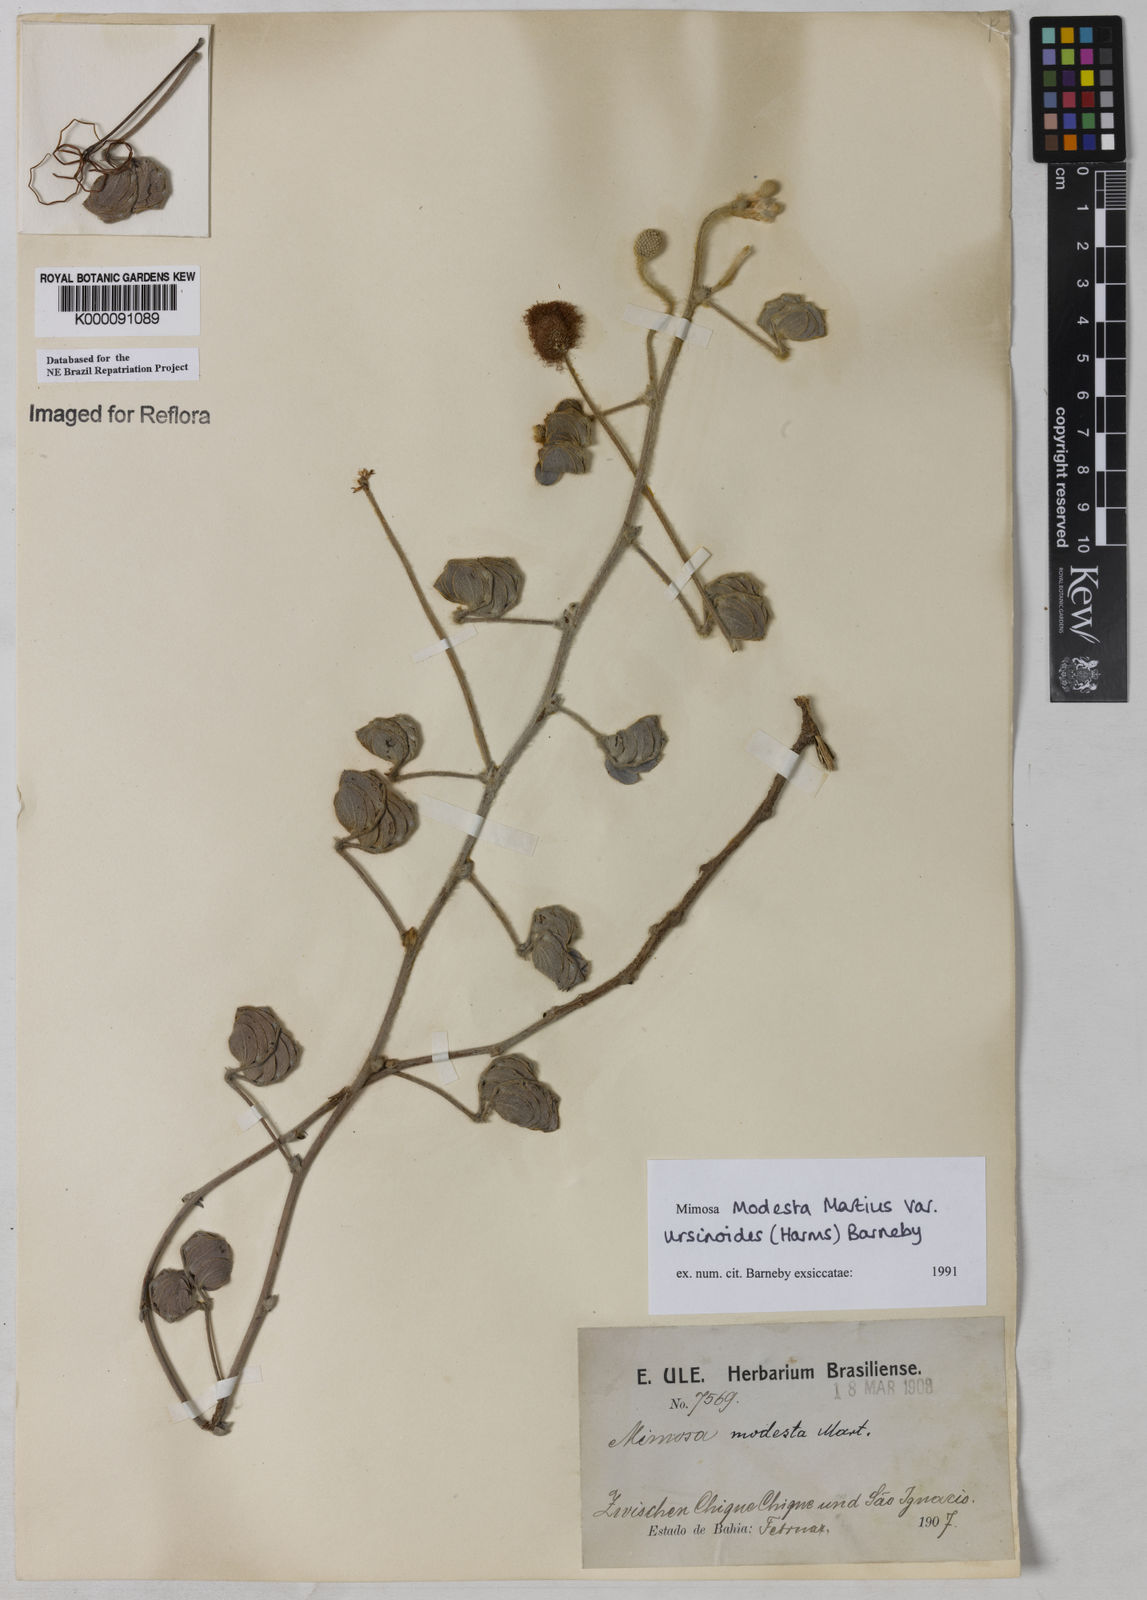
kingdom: Plantae
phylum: Tracheophyta
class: Magnoliopsida
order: Fabales
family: Fabaceae
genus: Mimosa
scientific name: Mimosa modesta
